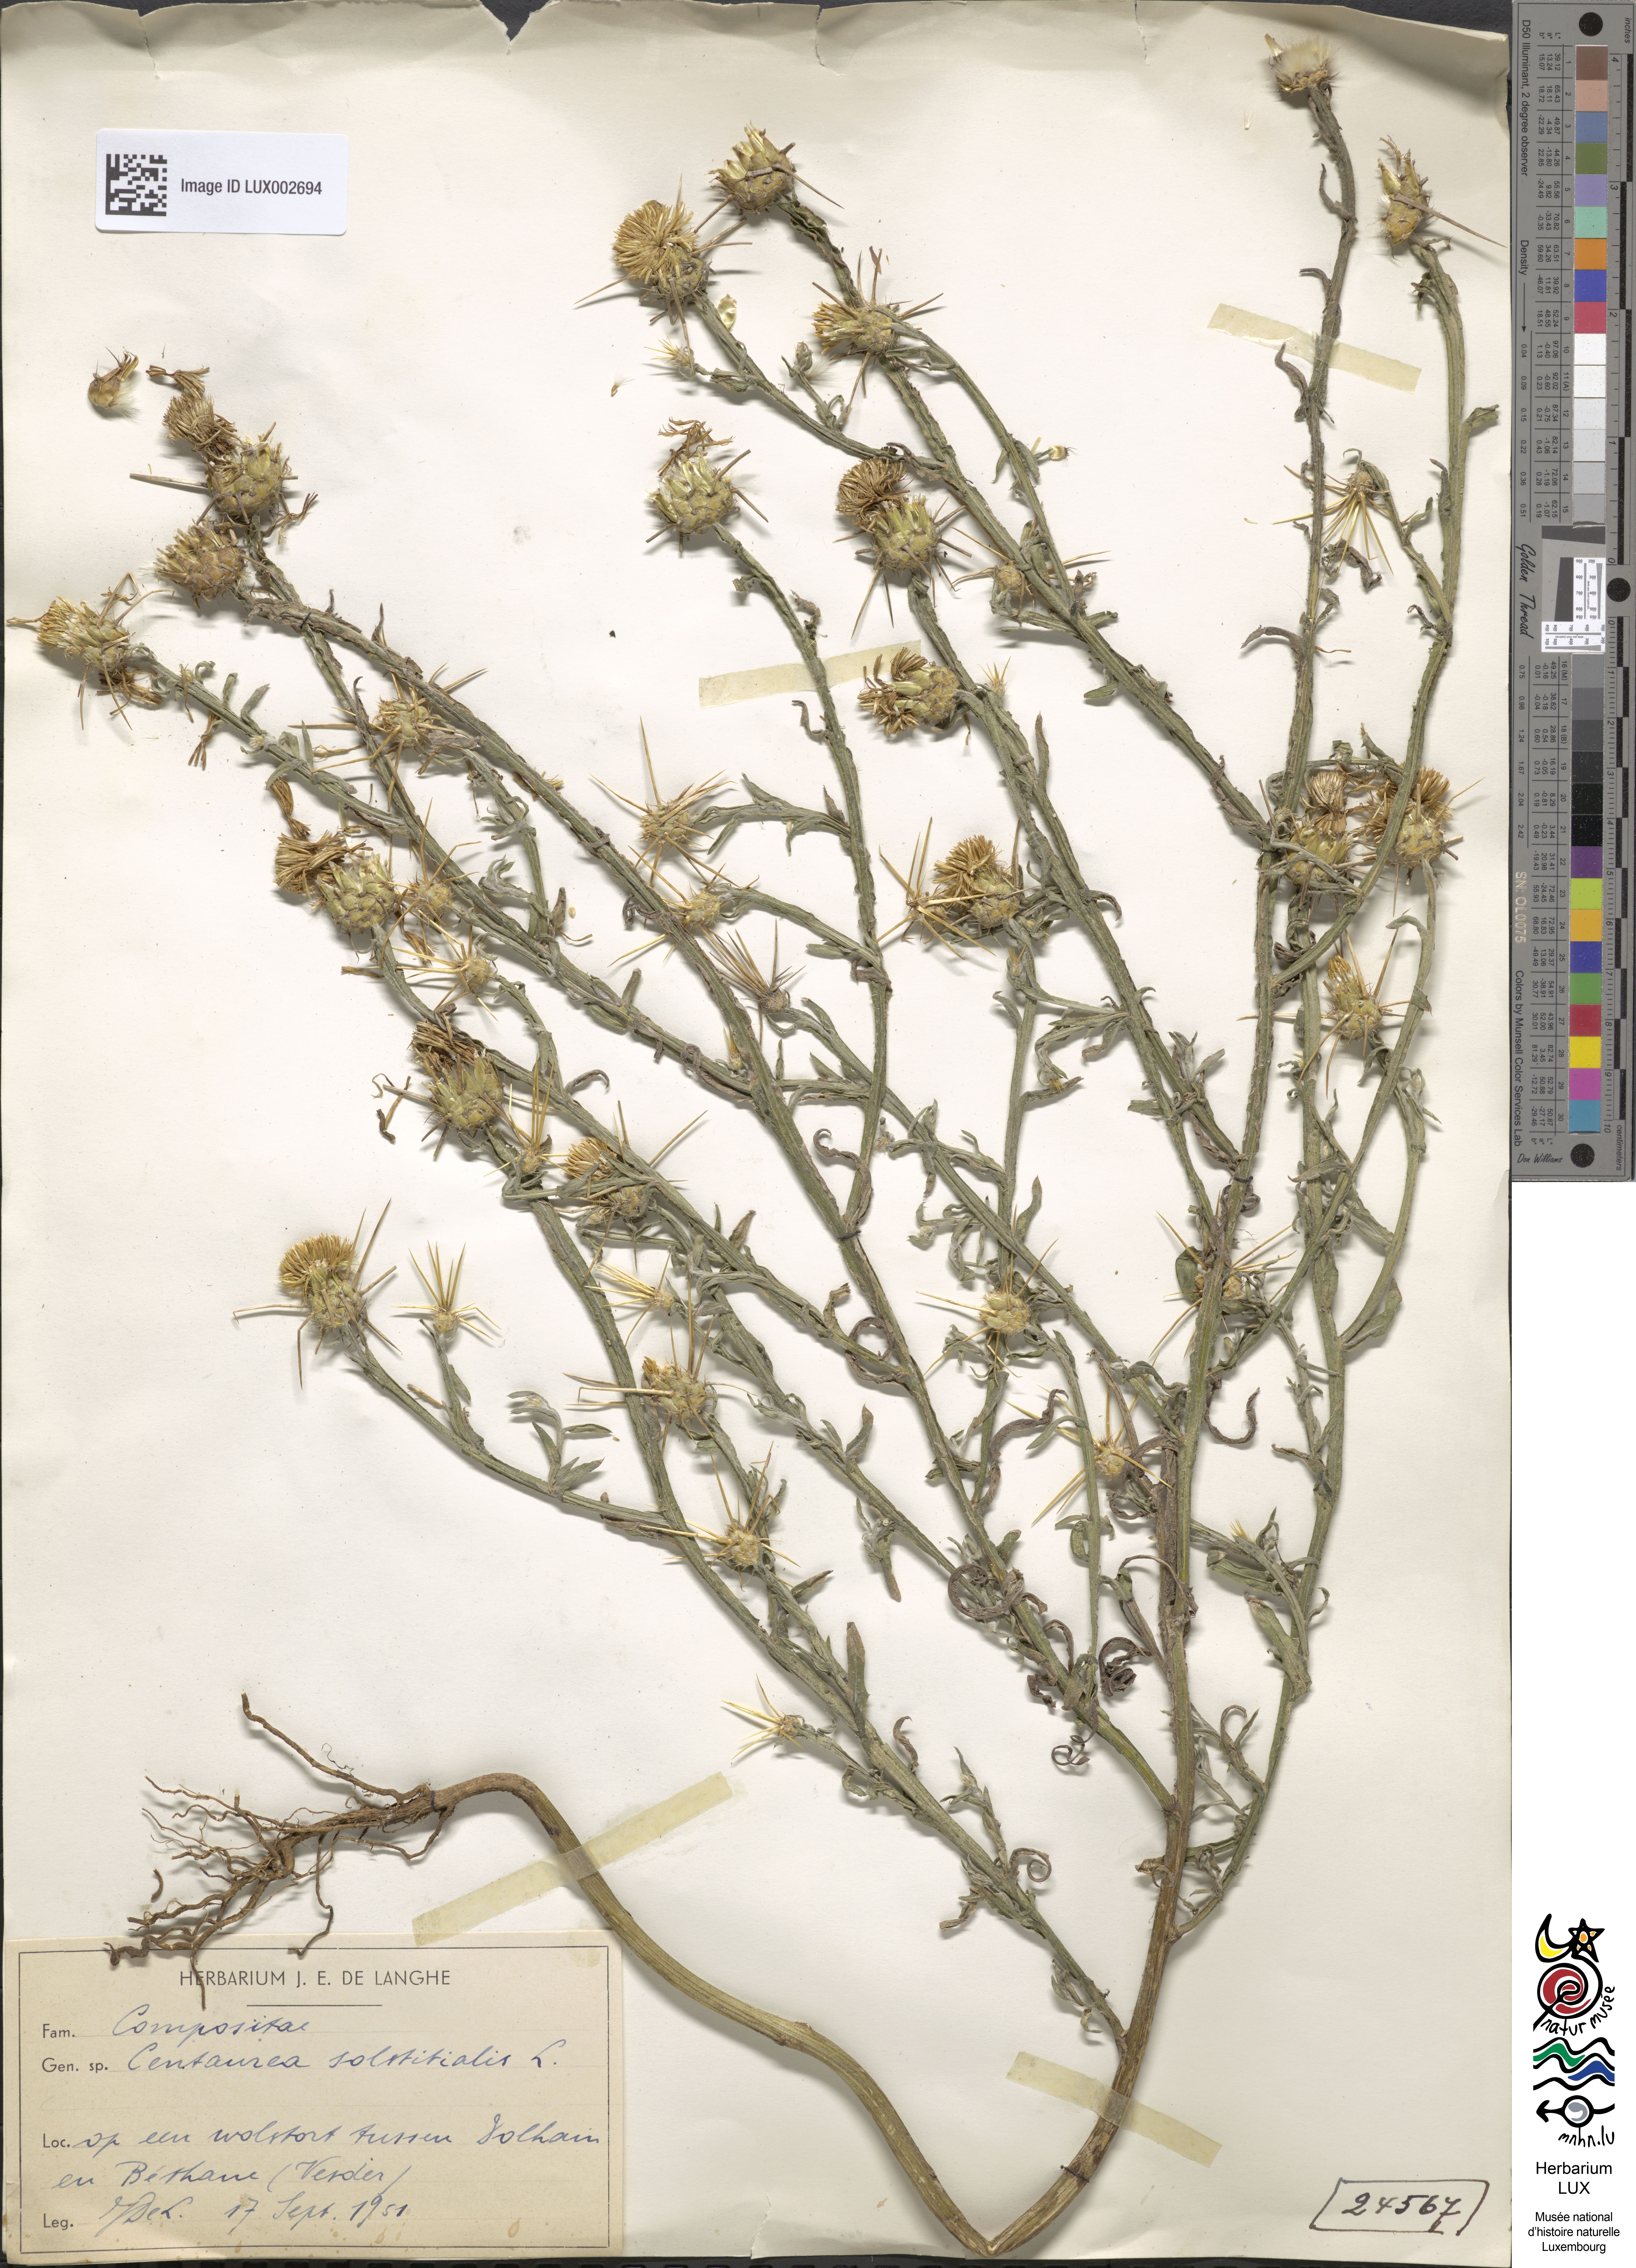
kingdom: Plantae
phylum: Tracheophyta
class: Magnoliopsida
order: Asterales
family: Asteraceae
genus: Centaurea
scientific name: Centaurea solstitialis
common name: Yellow star-thistle
